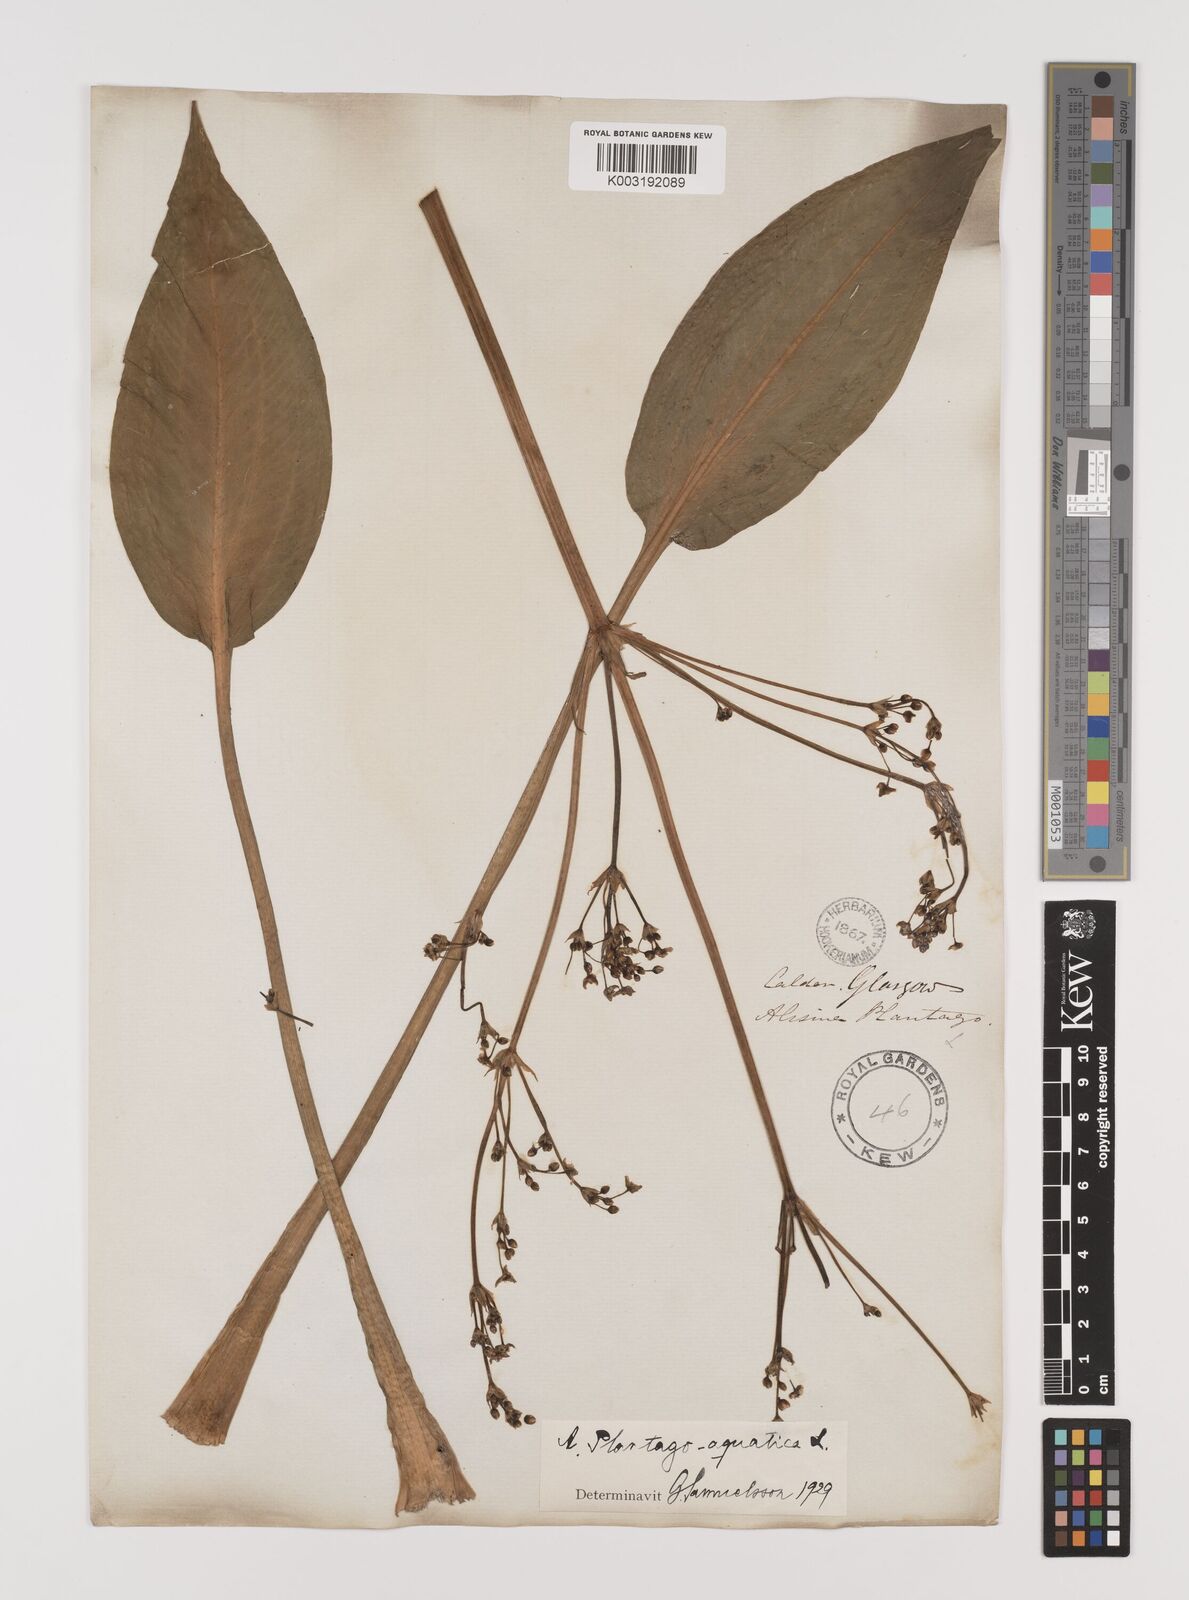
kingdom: Plantae
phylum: Tracheophyta
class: Liliopsida
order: Alismatales
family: Alismataceae
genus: Alisma
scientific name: Alisma plantago-aquatica
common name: Water-plantain
